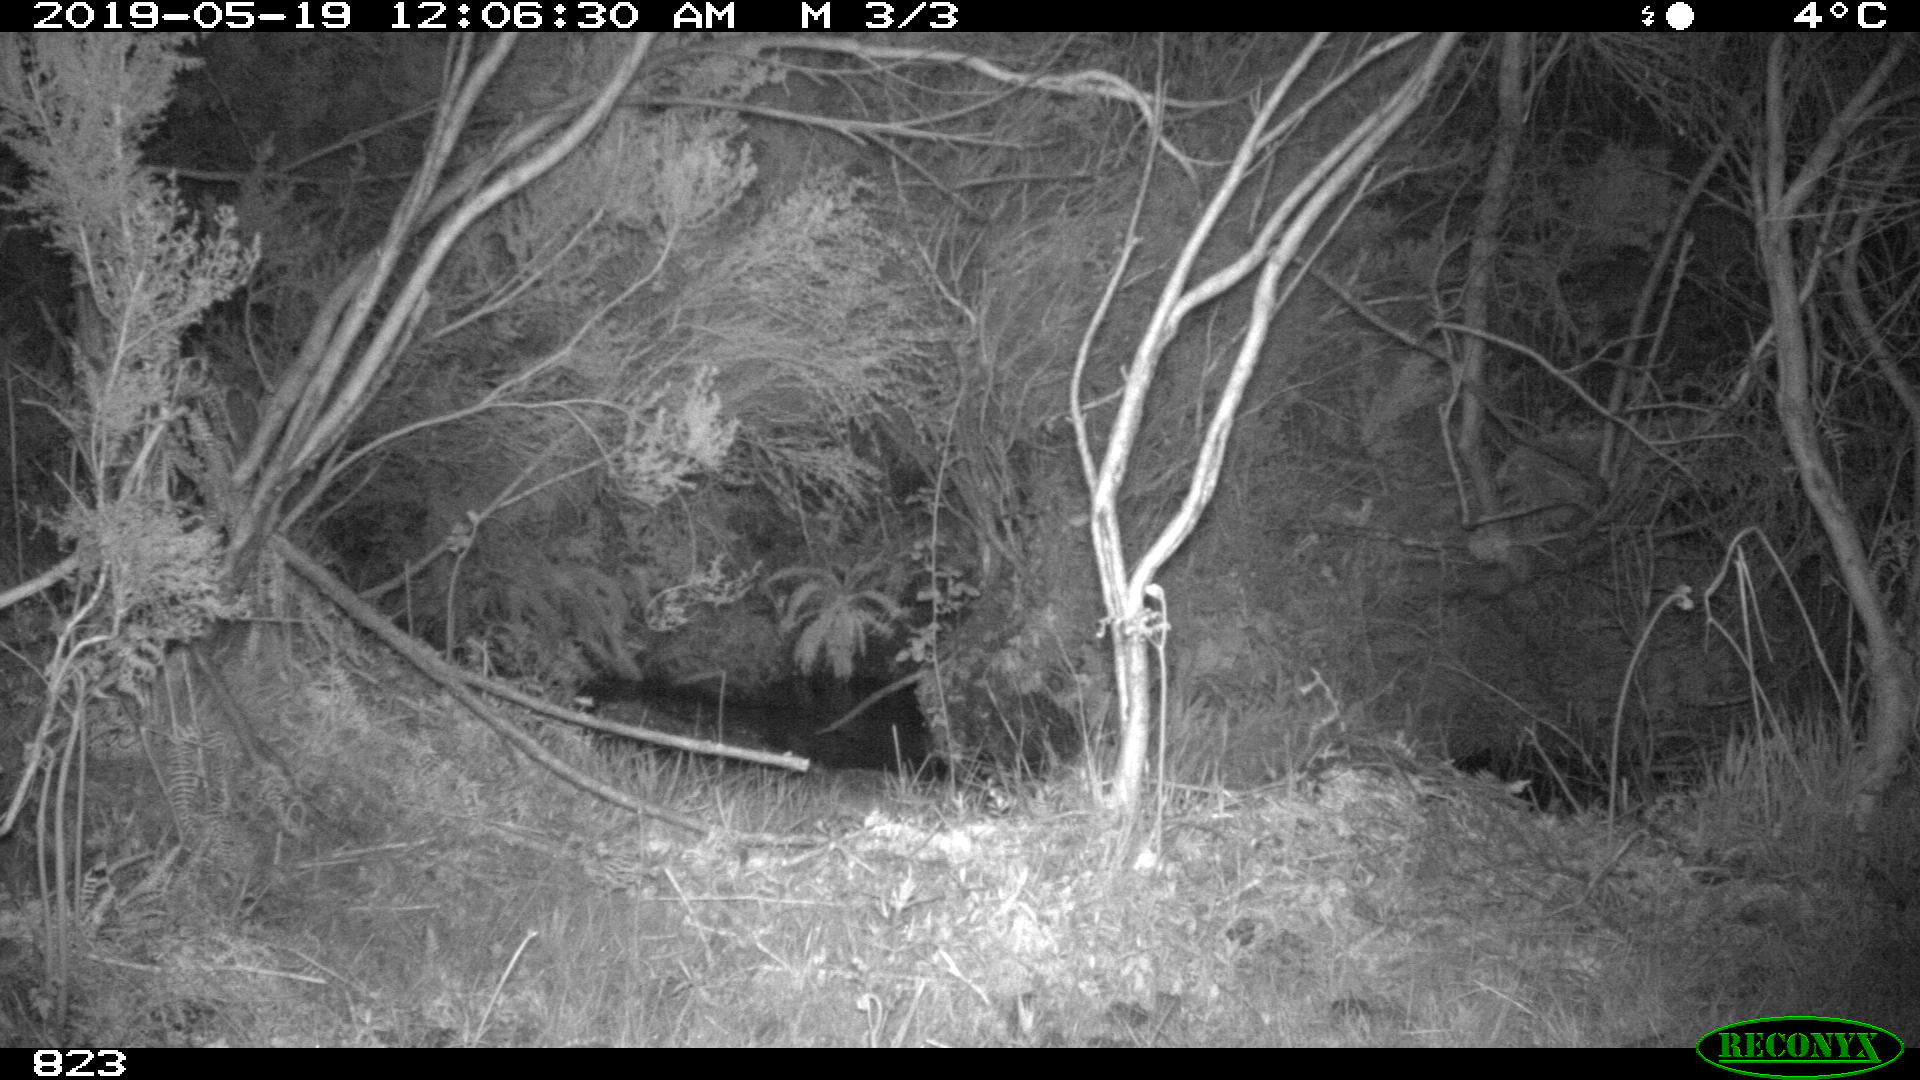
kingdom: Animalia
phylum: Chordata
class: Mammalia
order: Artiodactyla
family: Suidae
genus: Sus
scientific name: Sus scrofa
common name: Wild boar
